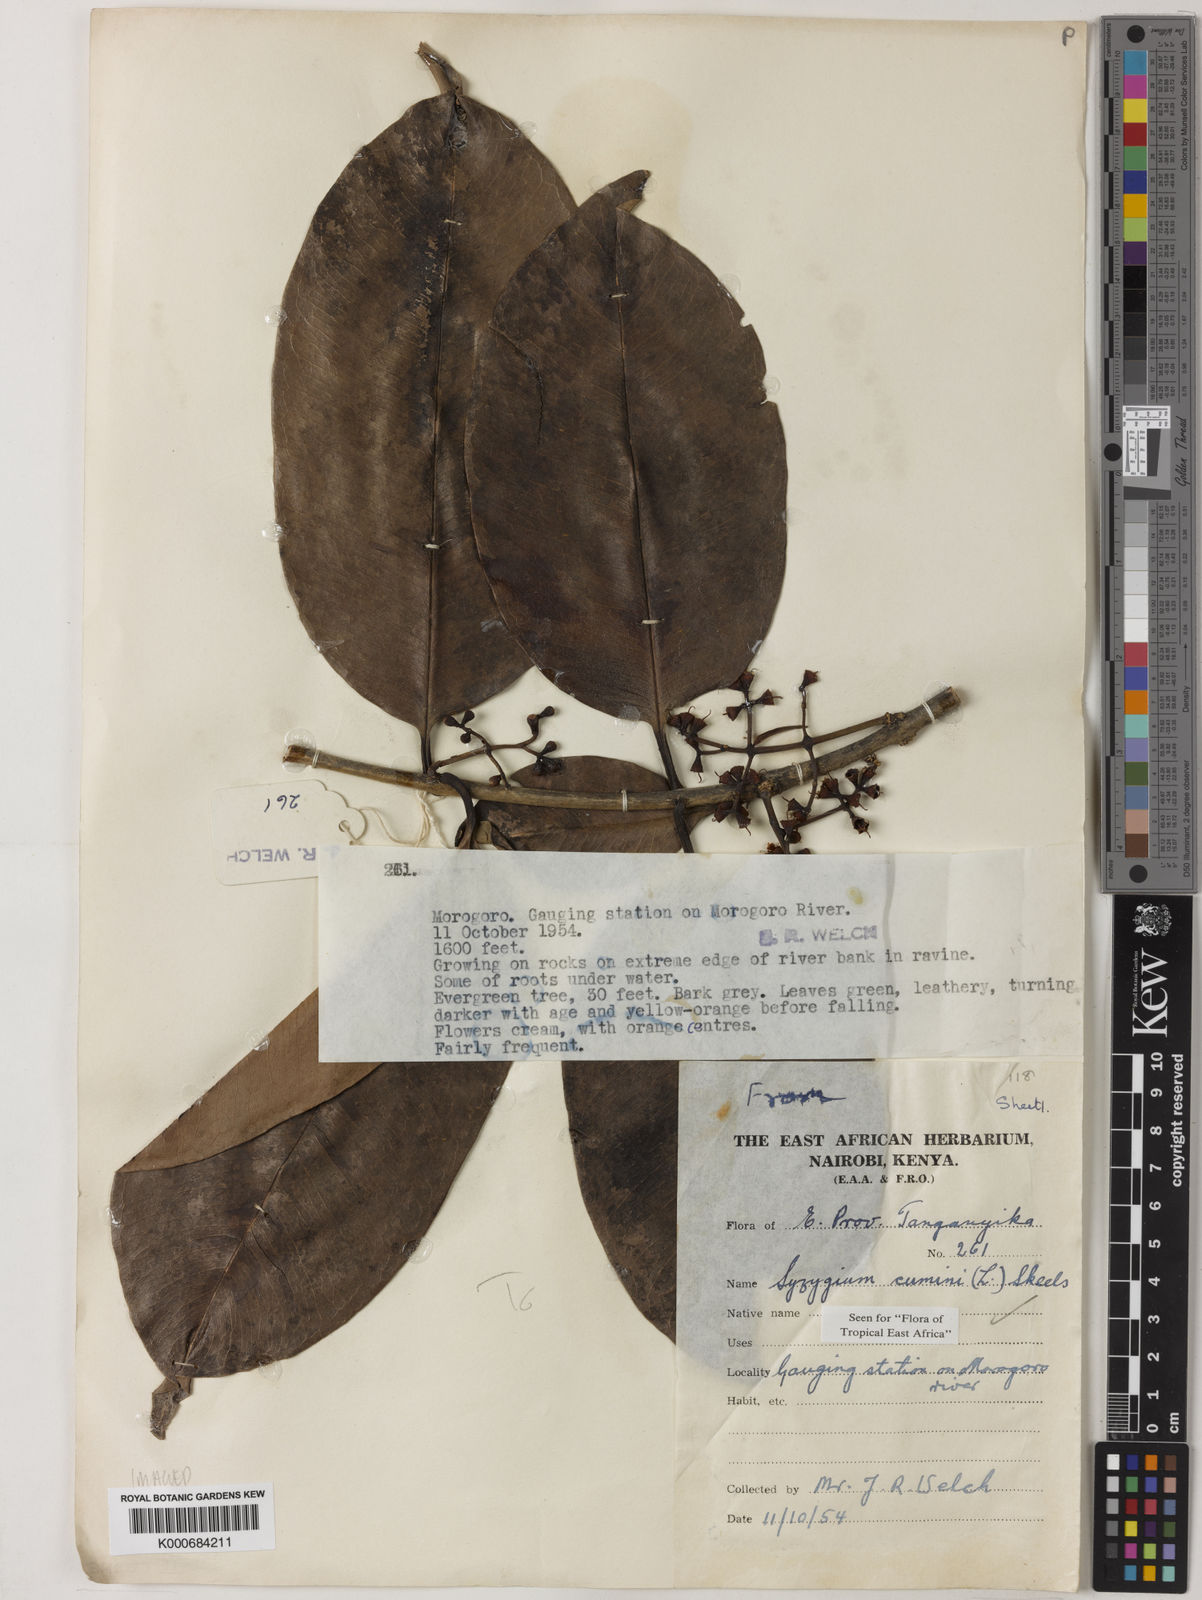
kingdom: Plantae
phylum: Tracheophyta
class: Magnoliopsida
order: Myrtales
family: Myrtaceae
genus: Syzygium
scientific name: Syzygium cumini
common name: Java plum
